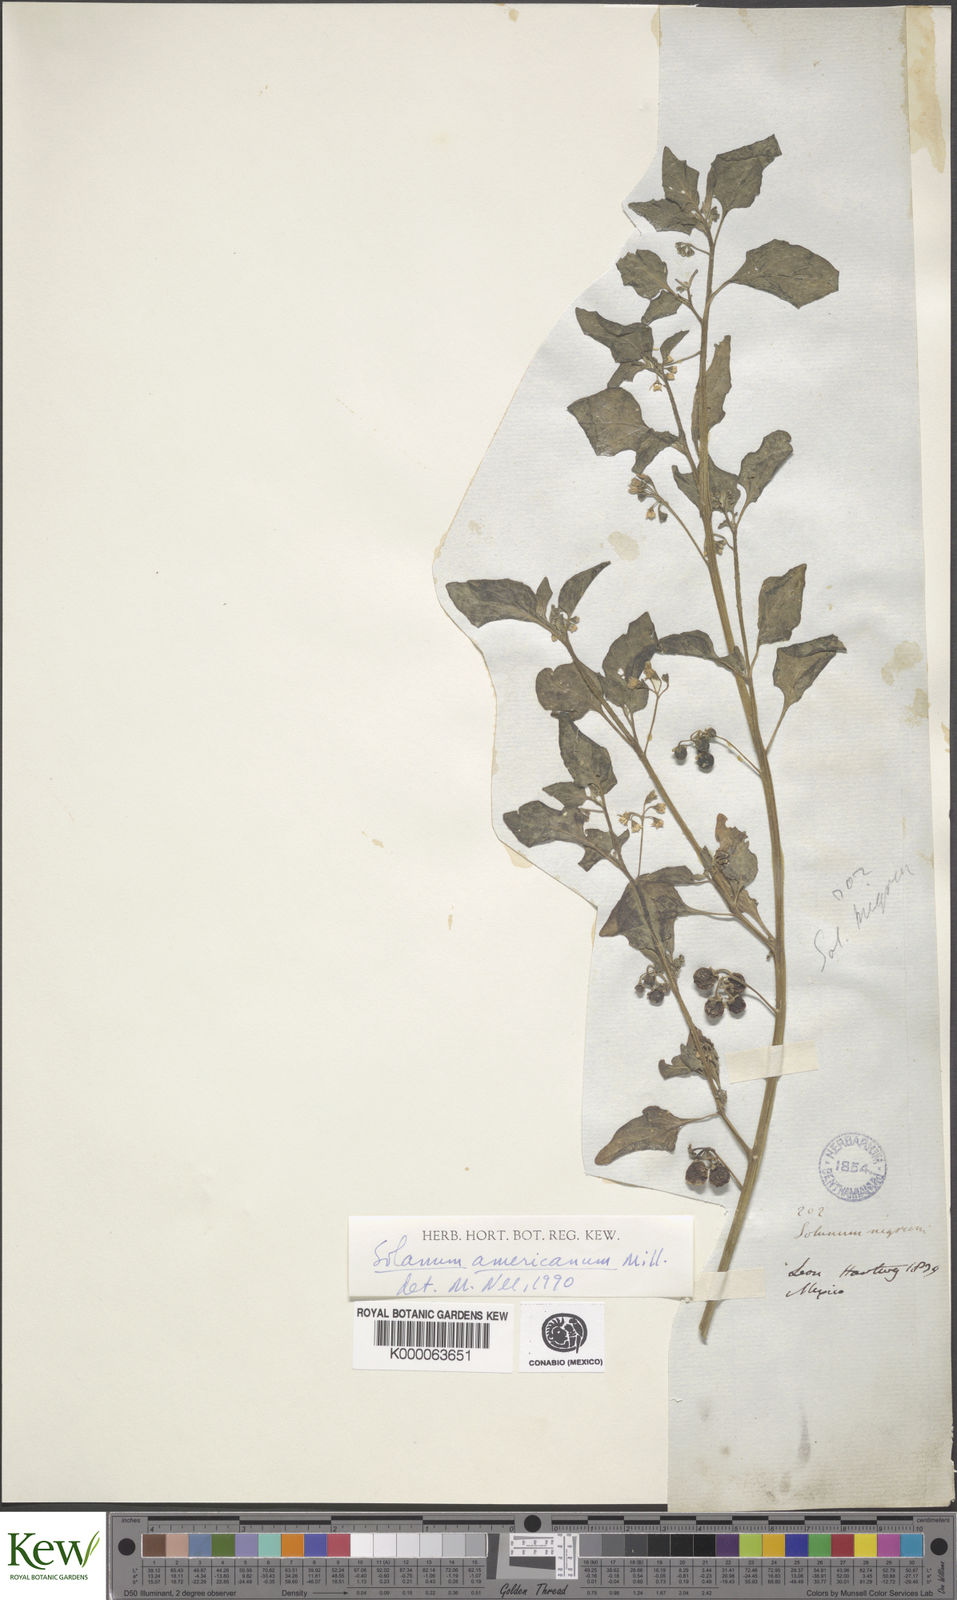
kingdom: Plantae
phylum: Tracheophyta
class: Magnoliopsida
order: Solanales
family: Solanaceae
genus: Solanum
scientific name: Solanum americanum
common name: American black nightshade
